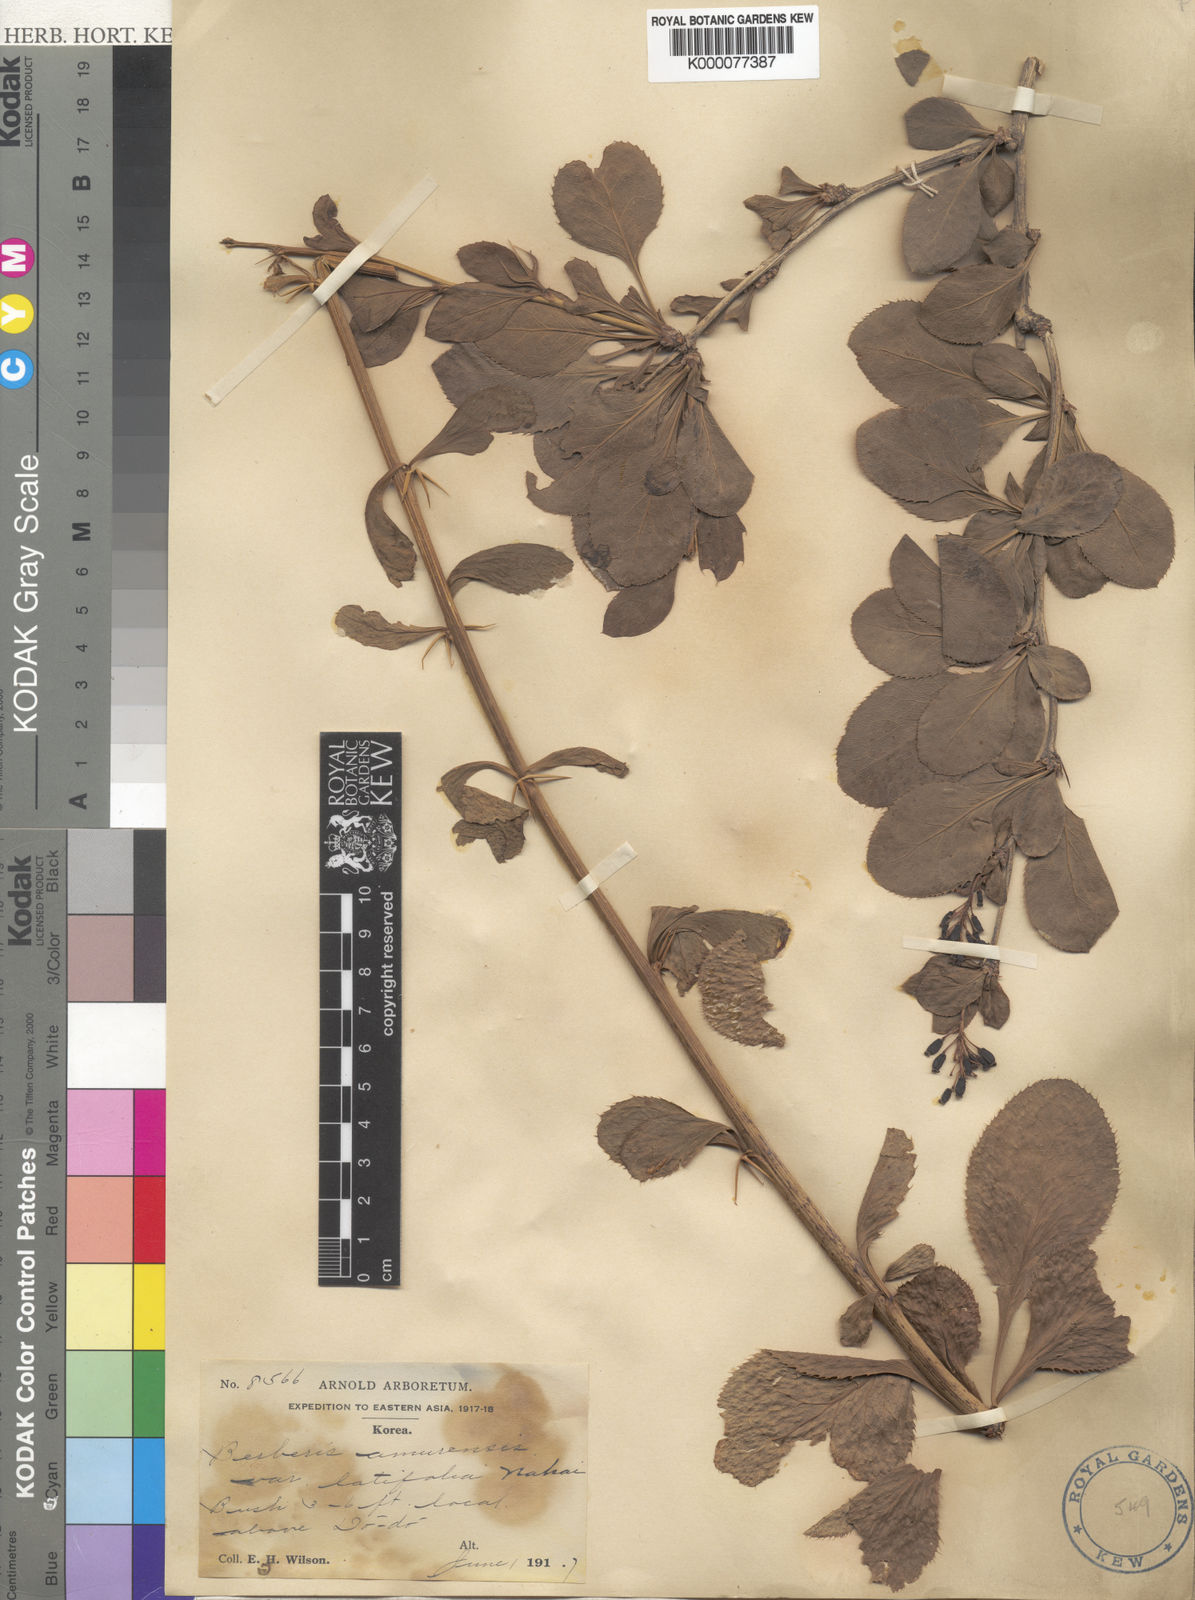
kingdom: Plantae
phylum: Tracheophyta
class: Magnoliopsida
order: Ranunculales
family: Berberidaceae
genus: Berberis
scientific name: Berberis amurensis
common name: Amur barberry
